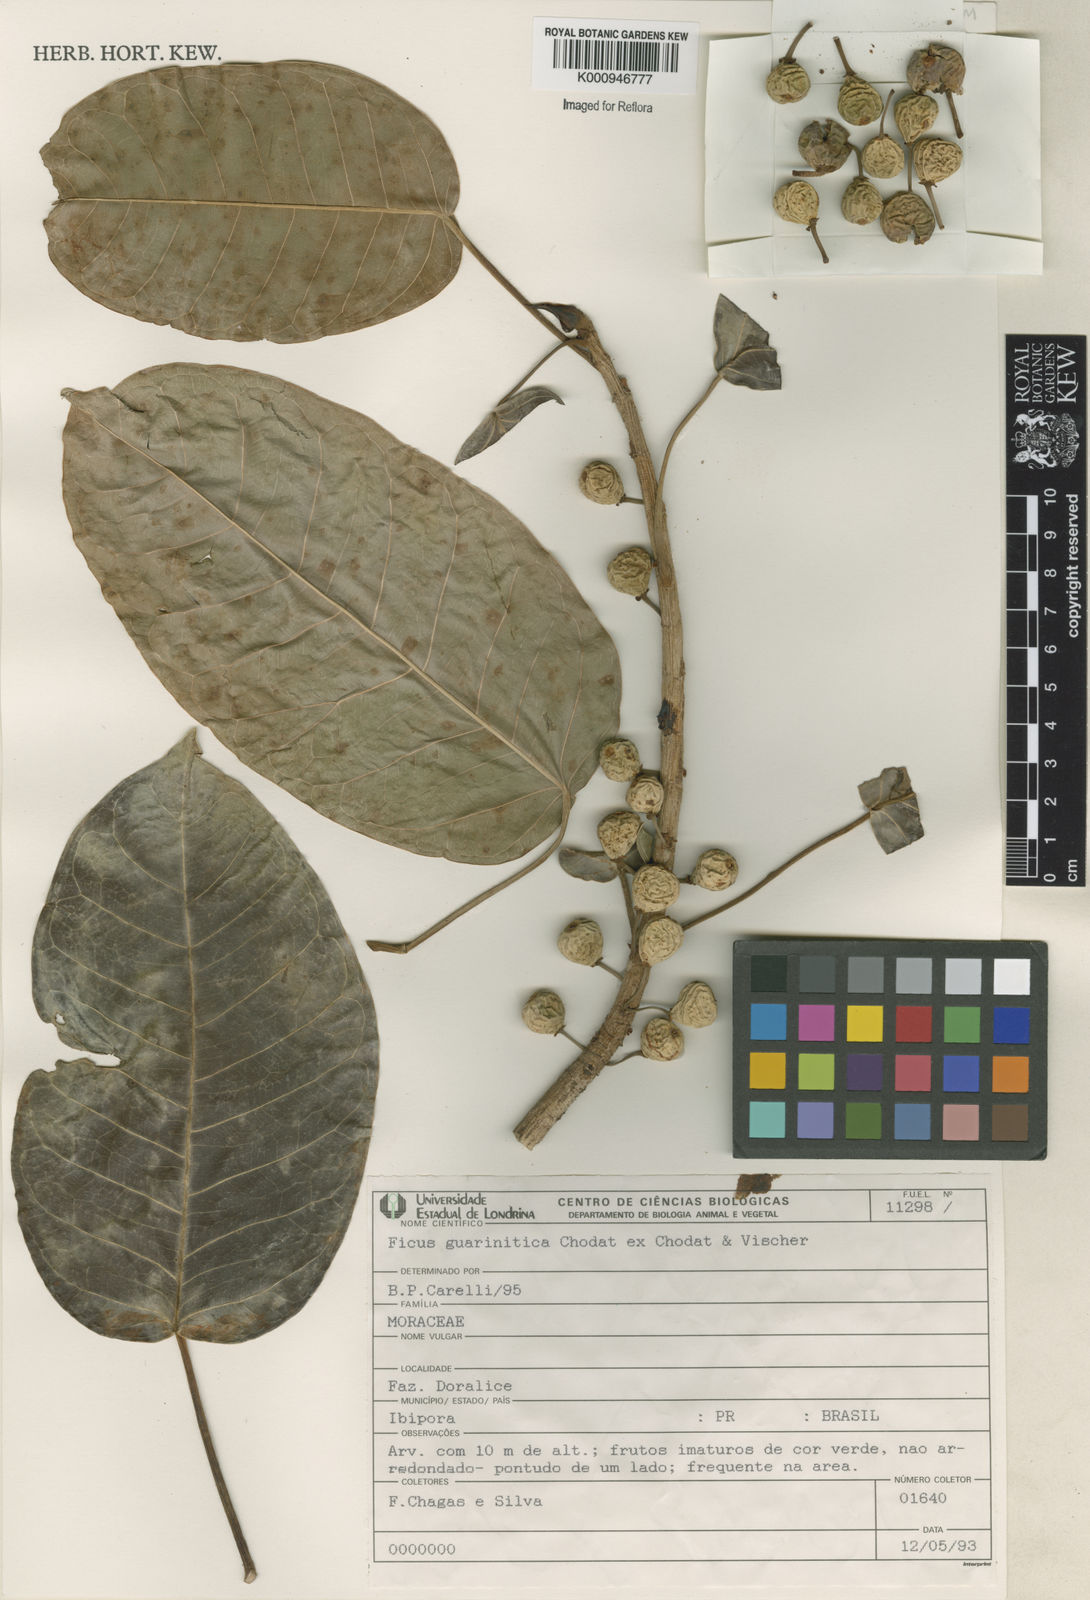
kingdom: Plantae
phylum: Tracheophyta
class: Magnoliopsida
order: Rosales
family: Moraceae
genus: Ficus
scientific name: Ficus guaranitica
